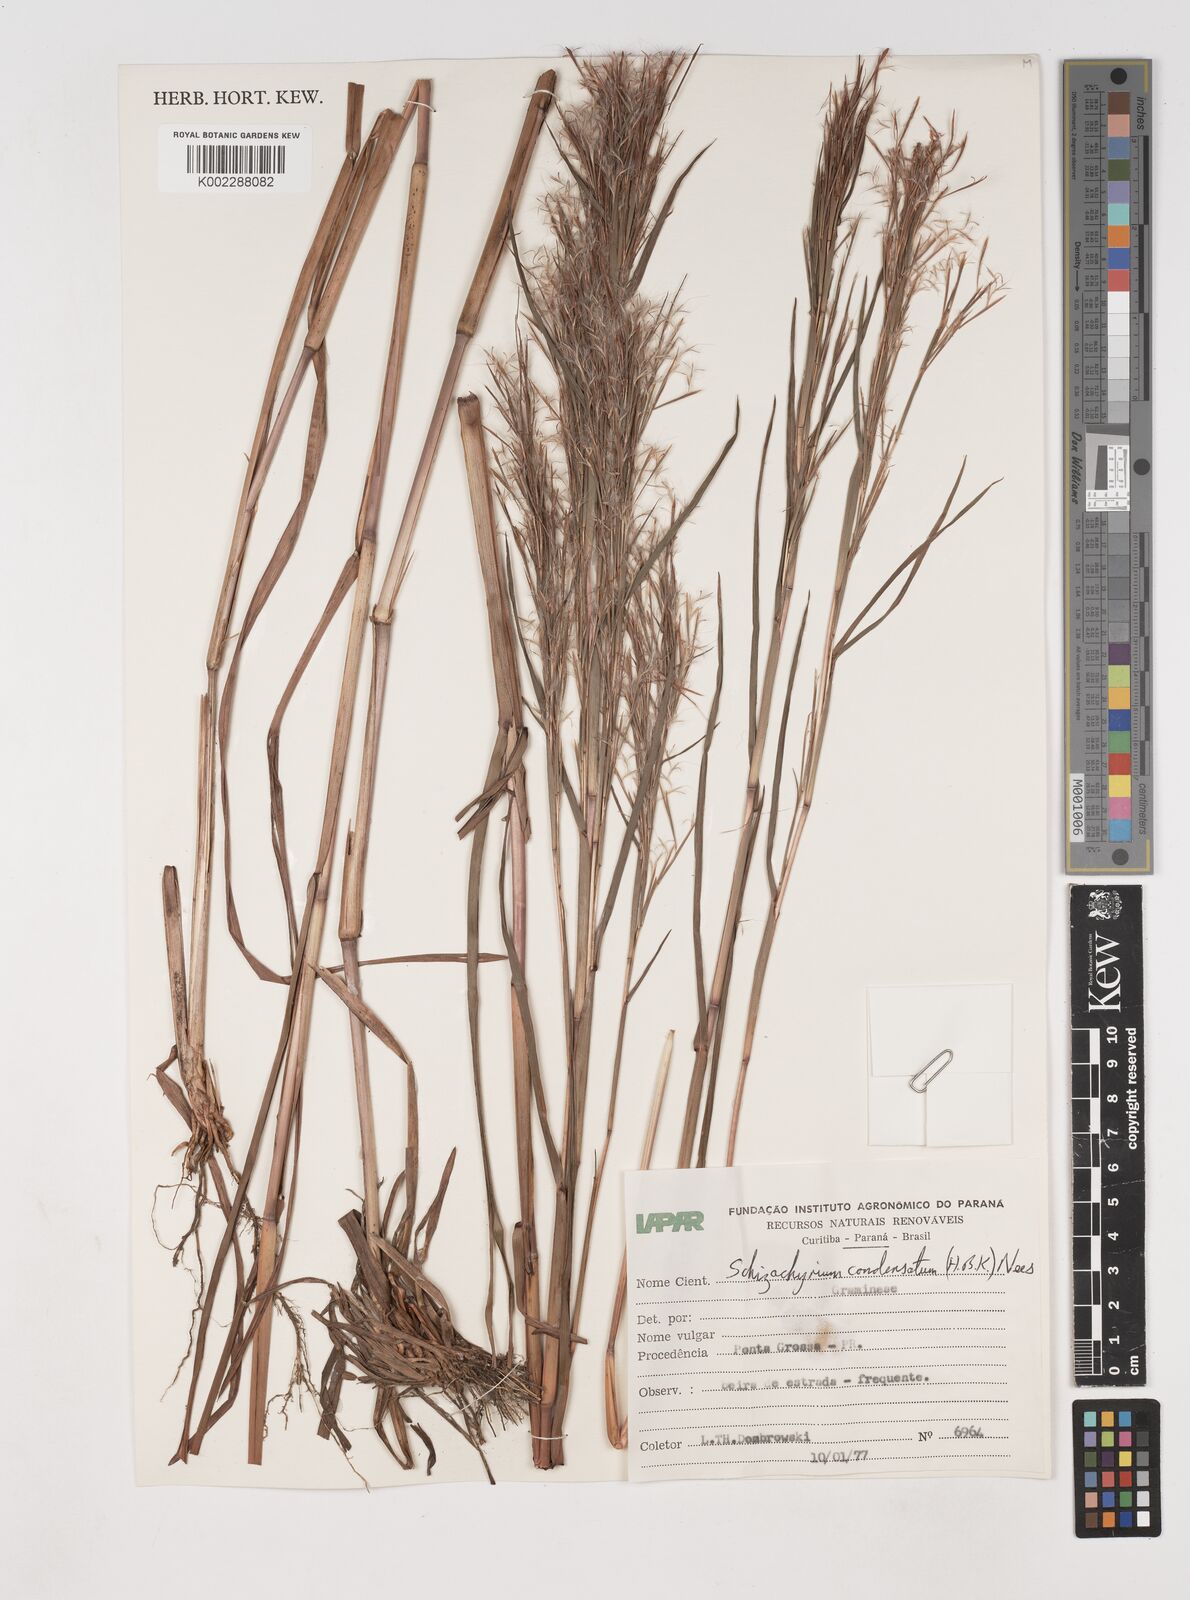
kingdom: Plantae
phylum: Tracheophyta
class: Liliopsida
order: Poales
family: Poaceae
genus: Schizachyrium
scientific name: Schizachyrium condensatum
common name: Bush beardgrass
